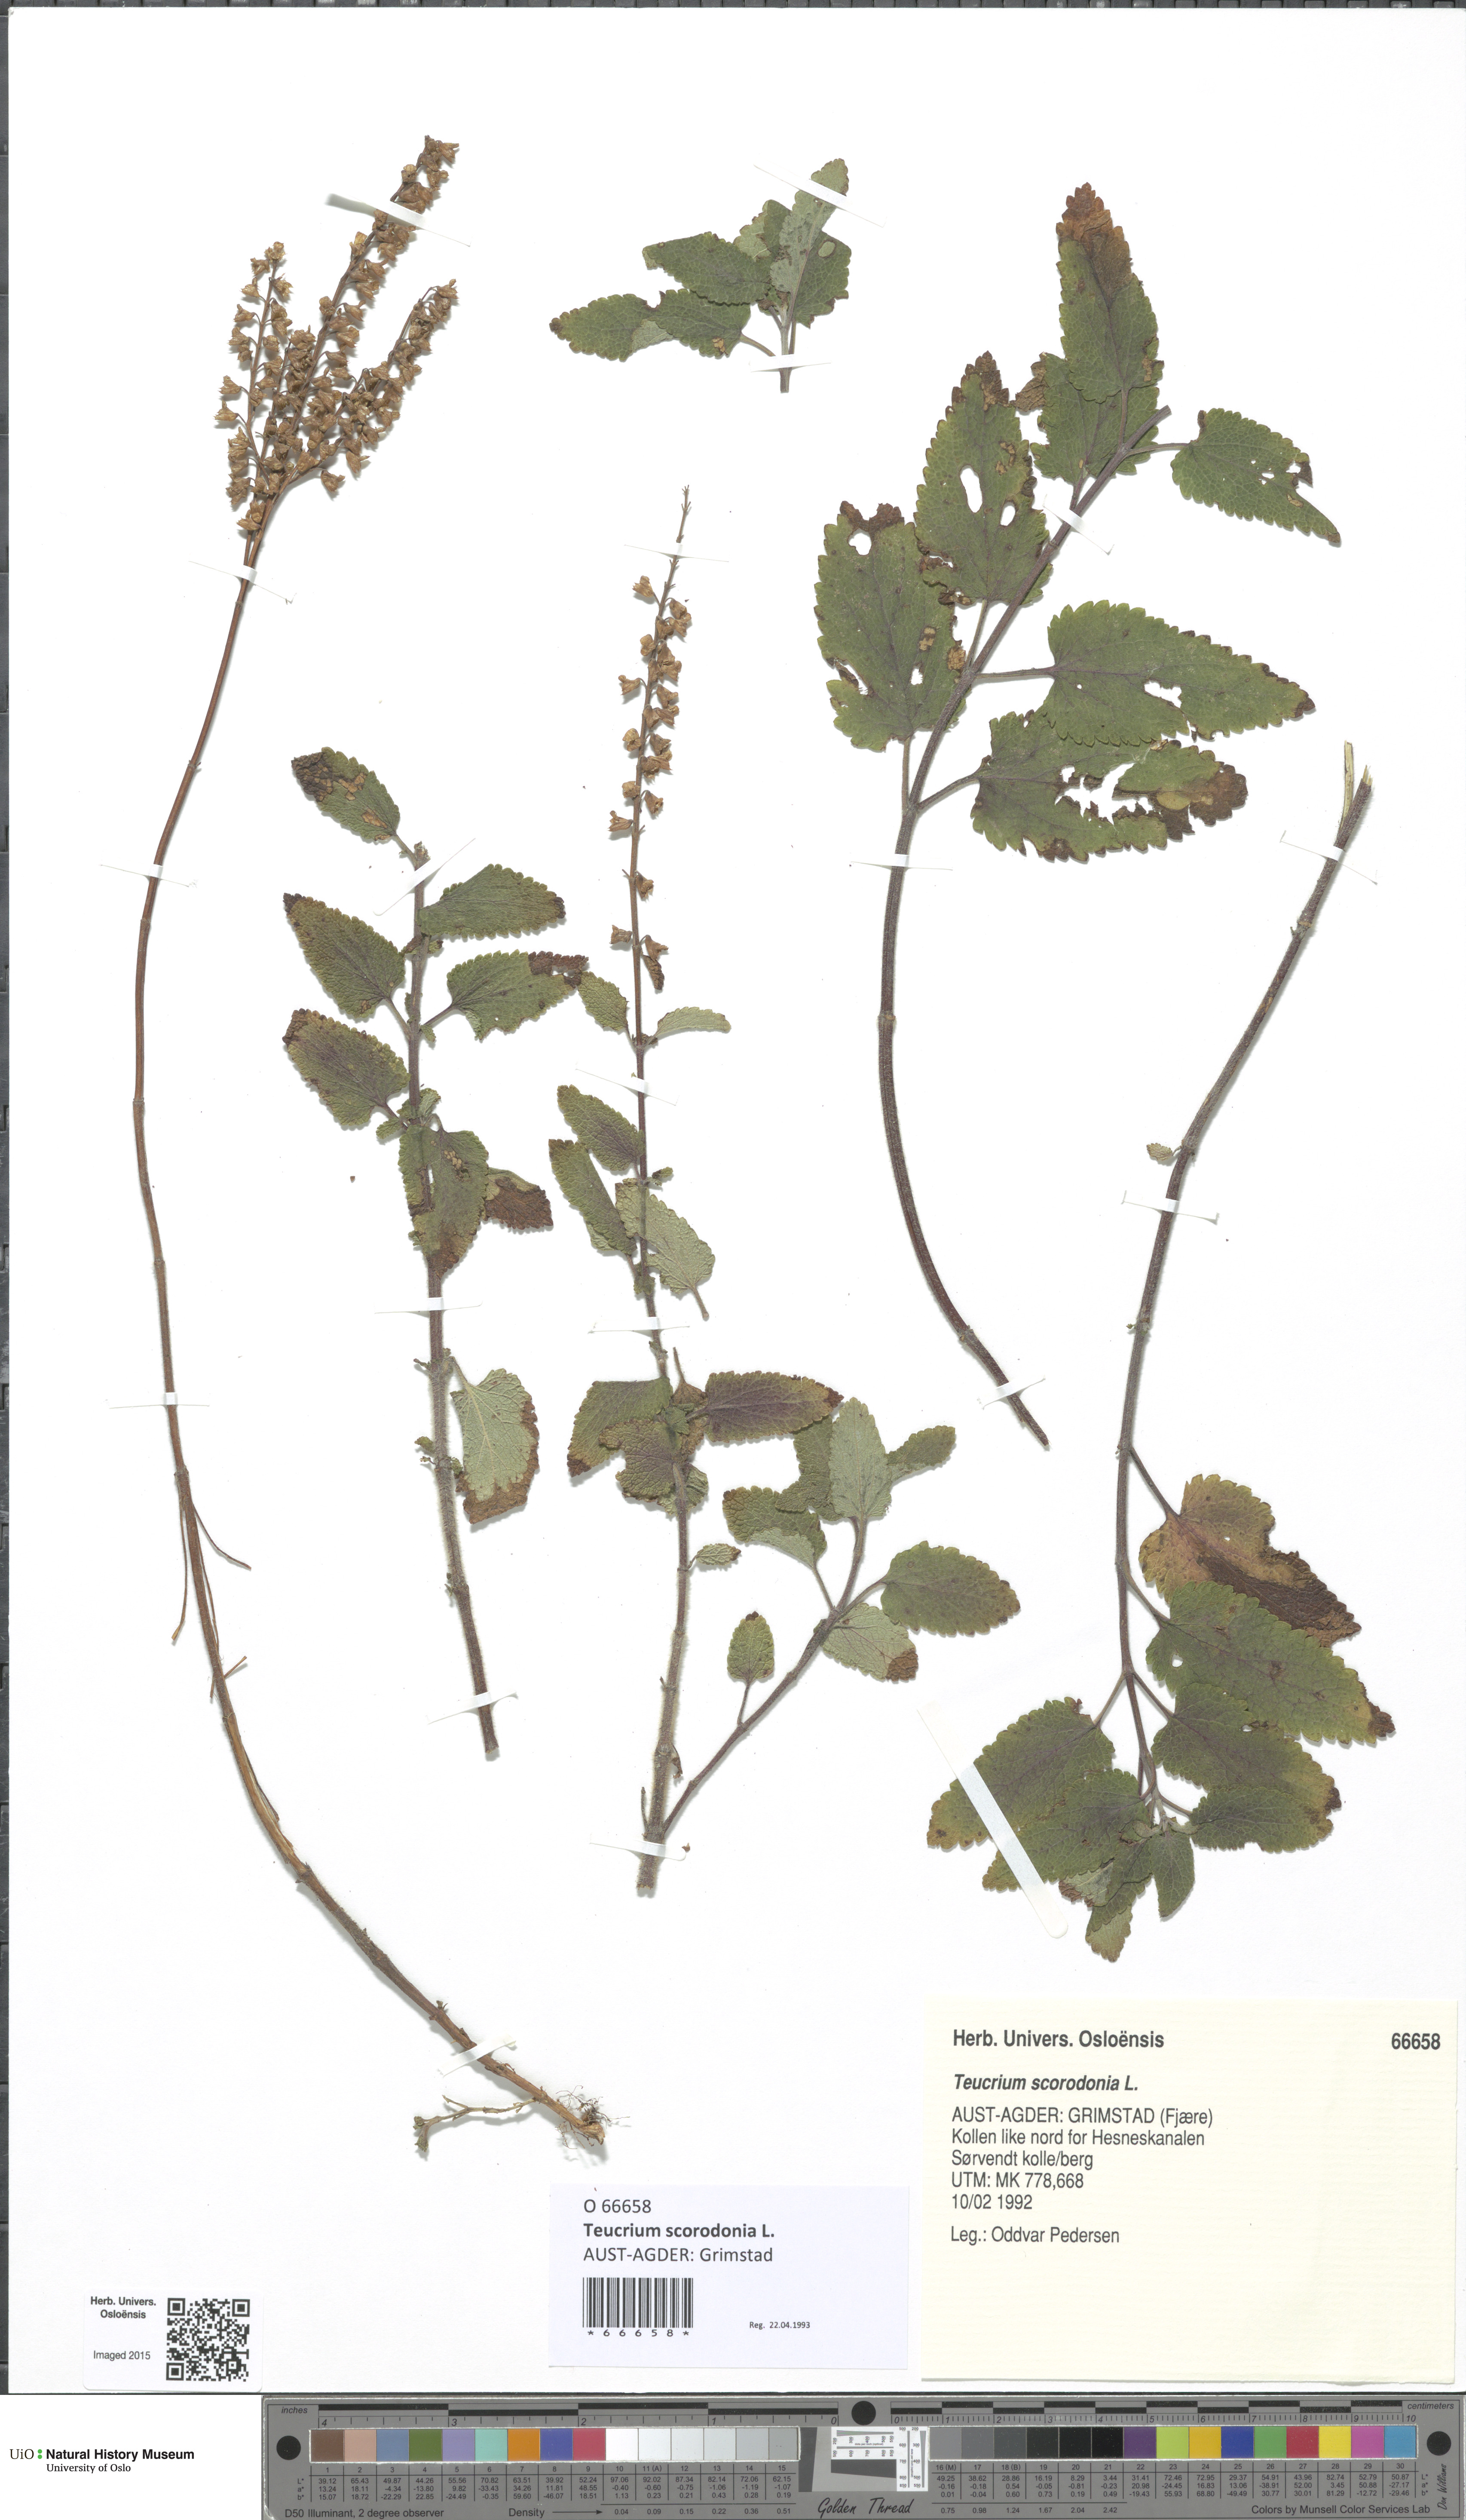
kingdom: Plantae
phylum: Tracheophyta
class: Magnoliopsida
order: Lamiales
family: Lamiaceae
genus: Teucrium
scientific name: Teucrium scorodonia
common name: Woodland germander
